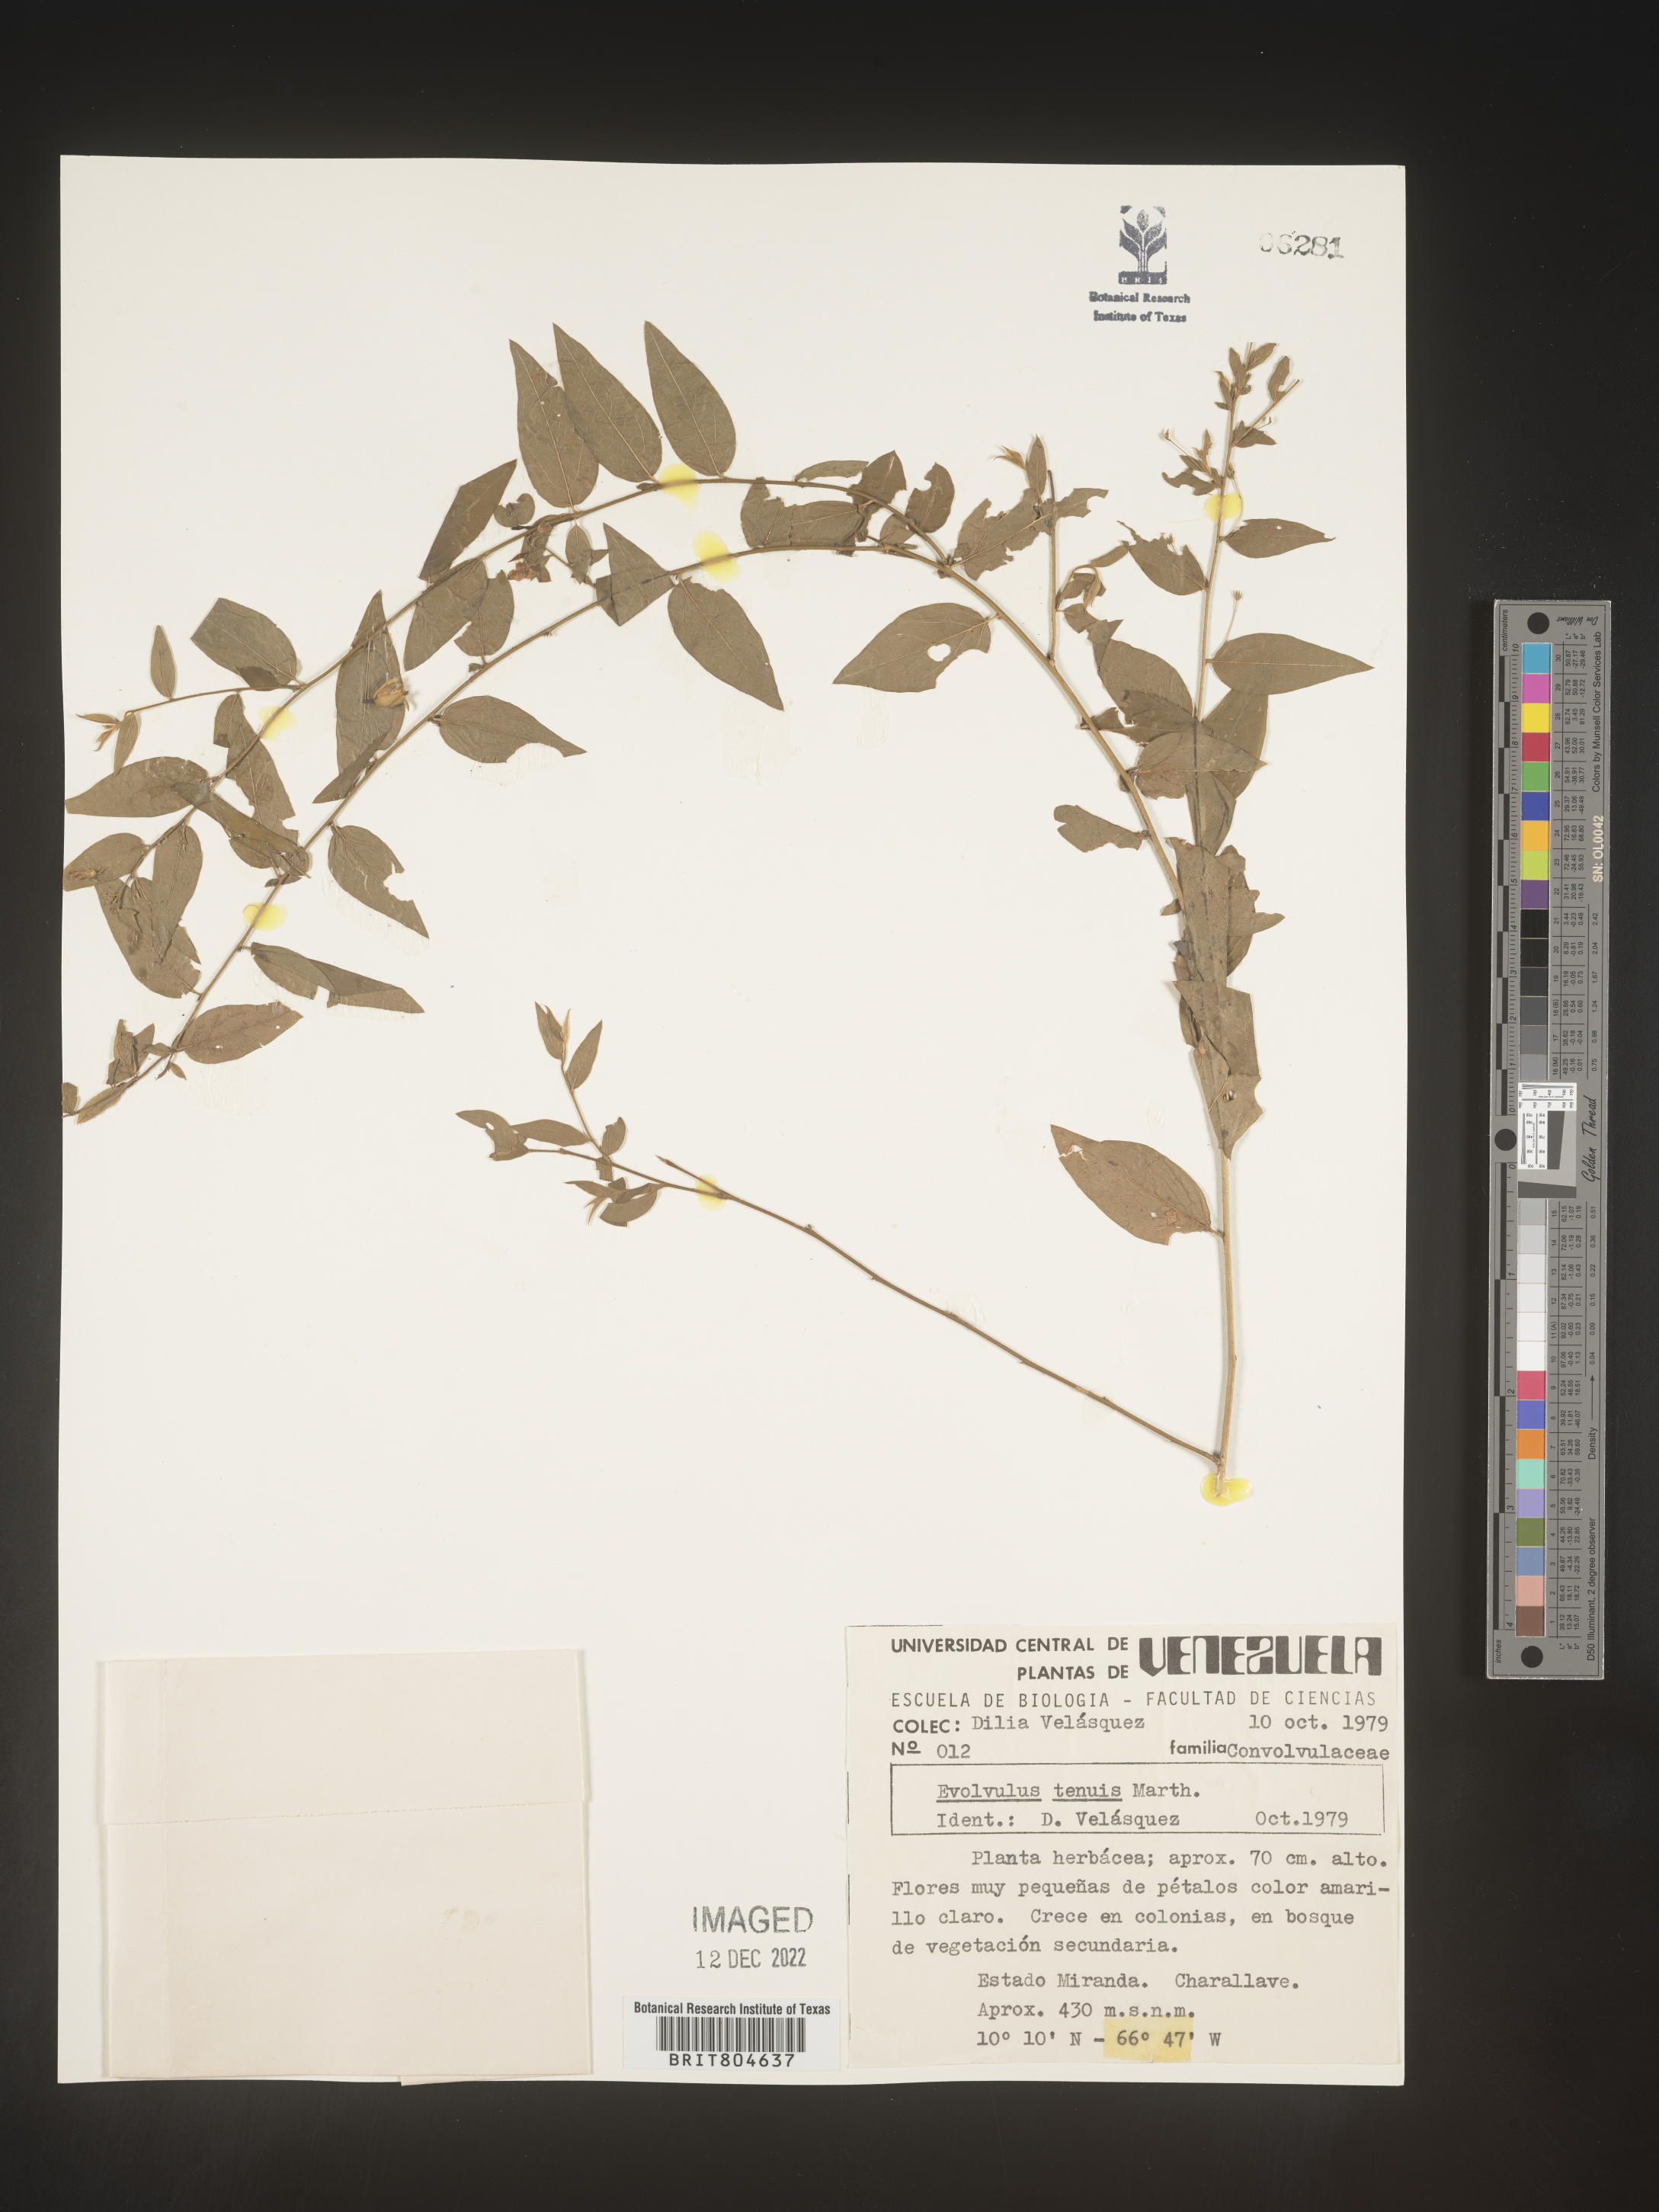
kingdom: Plantae
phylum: Tracheophyta
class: Magnoliopsida
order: Solanales
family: Convolvulaceae
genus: Evolvulus
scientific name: Evolvulus
